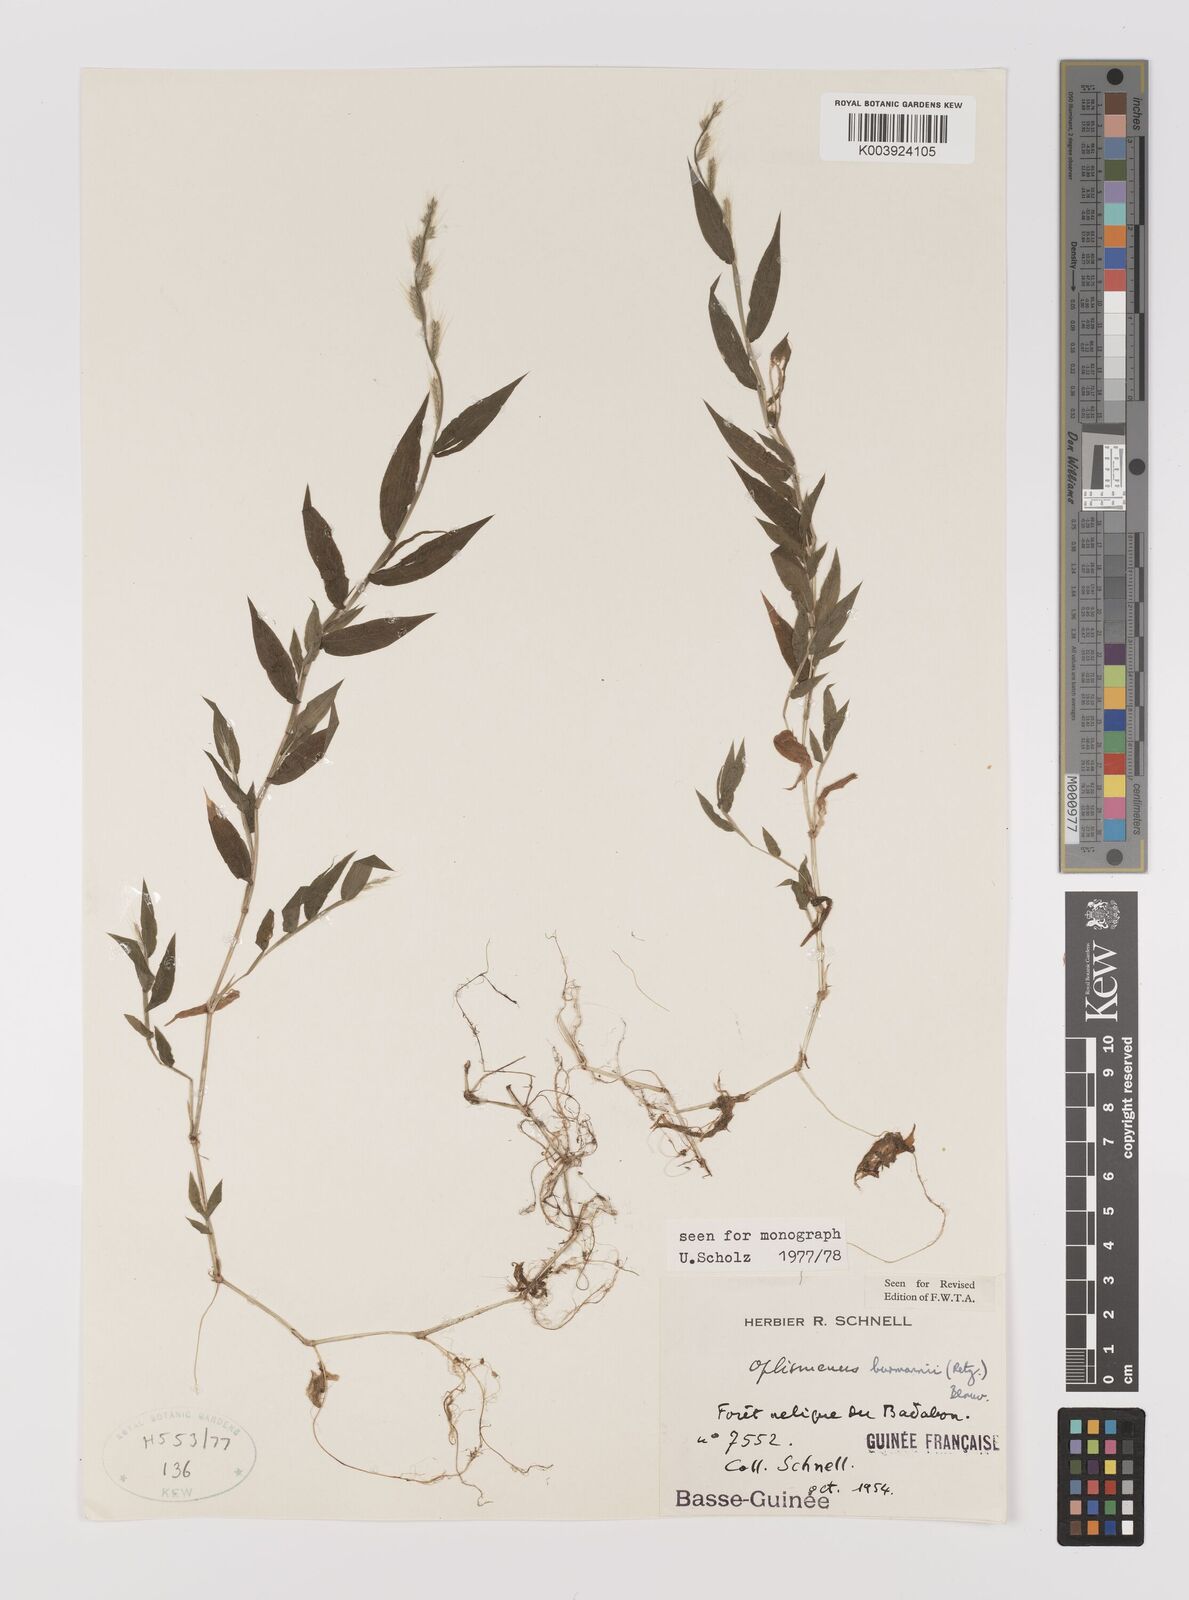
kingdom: Plantae
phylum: Tracheophyta
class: Liliopsida
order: Poales
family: Poaceae
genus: Oplismenus
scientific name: Oplismenus burmanni
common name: Burmann's basketgrass
